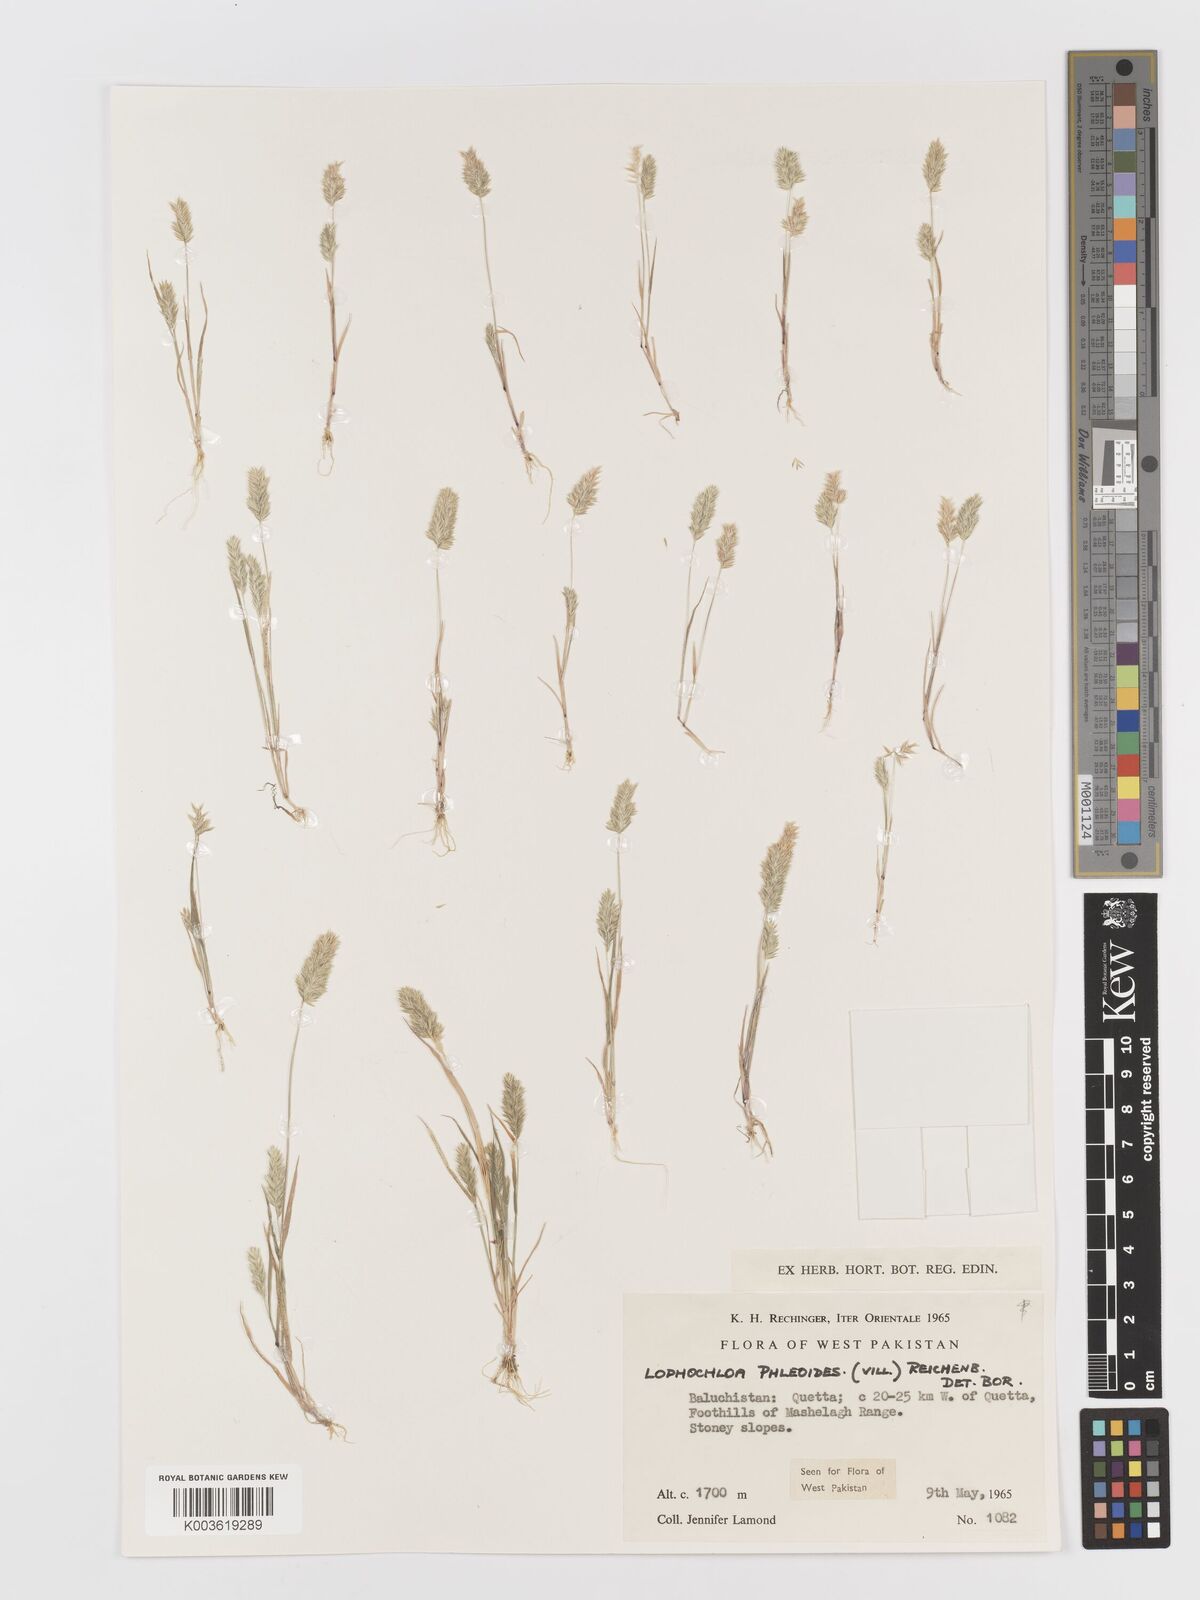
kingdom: Plantae
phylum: Tracheophyta
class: Liliopsida
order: Poales
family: Poaceae
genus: Rostraria
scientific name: Rostraria cristata
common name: Mediterranean hair-grass
